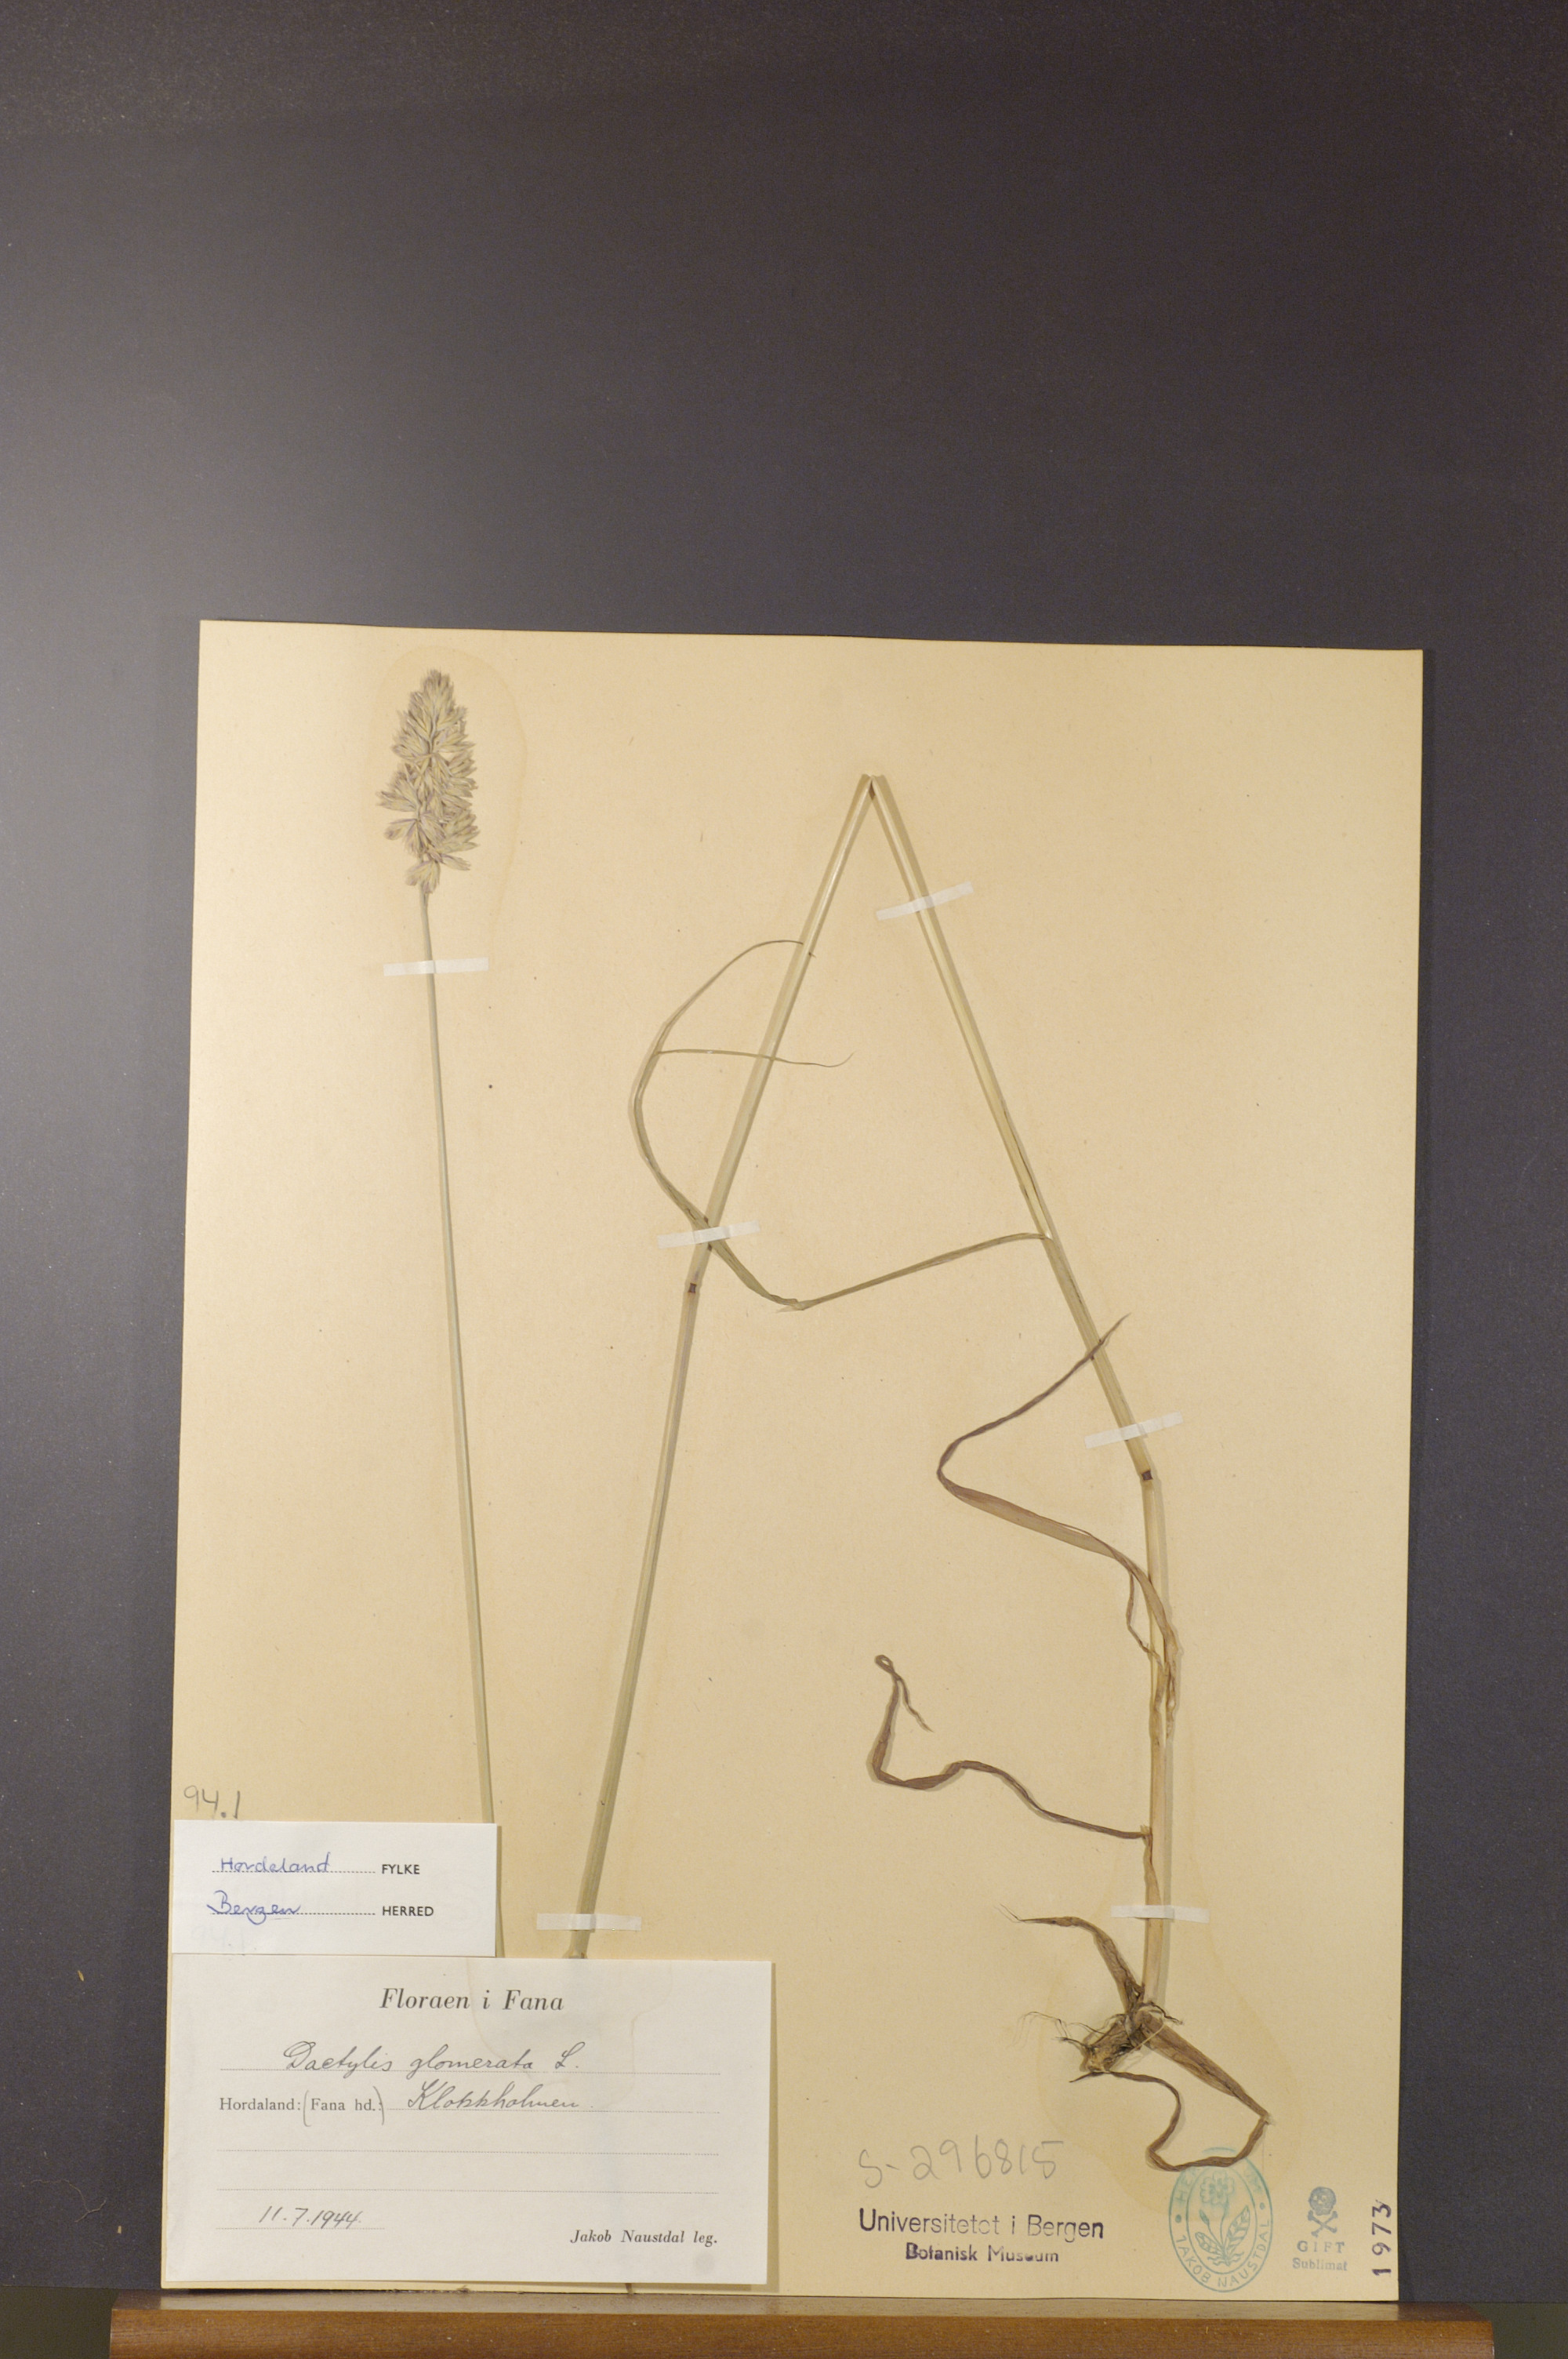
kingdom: Plantae
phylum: Tracheophyta
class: Liliopsida
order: Poales
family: Poaceae
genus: Dactylis
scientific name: Dactylis glomerata
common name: Orchardgrass
